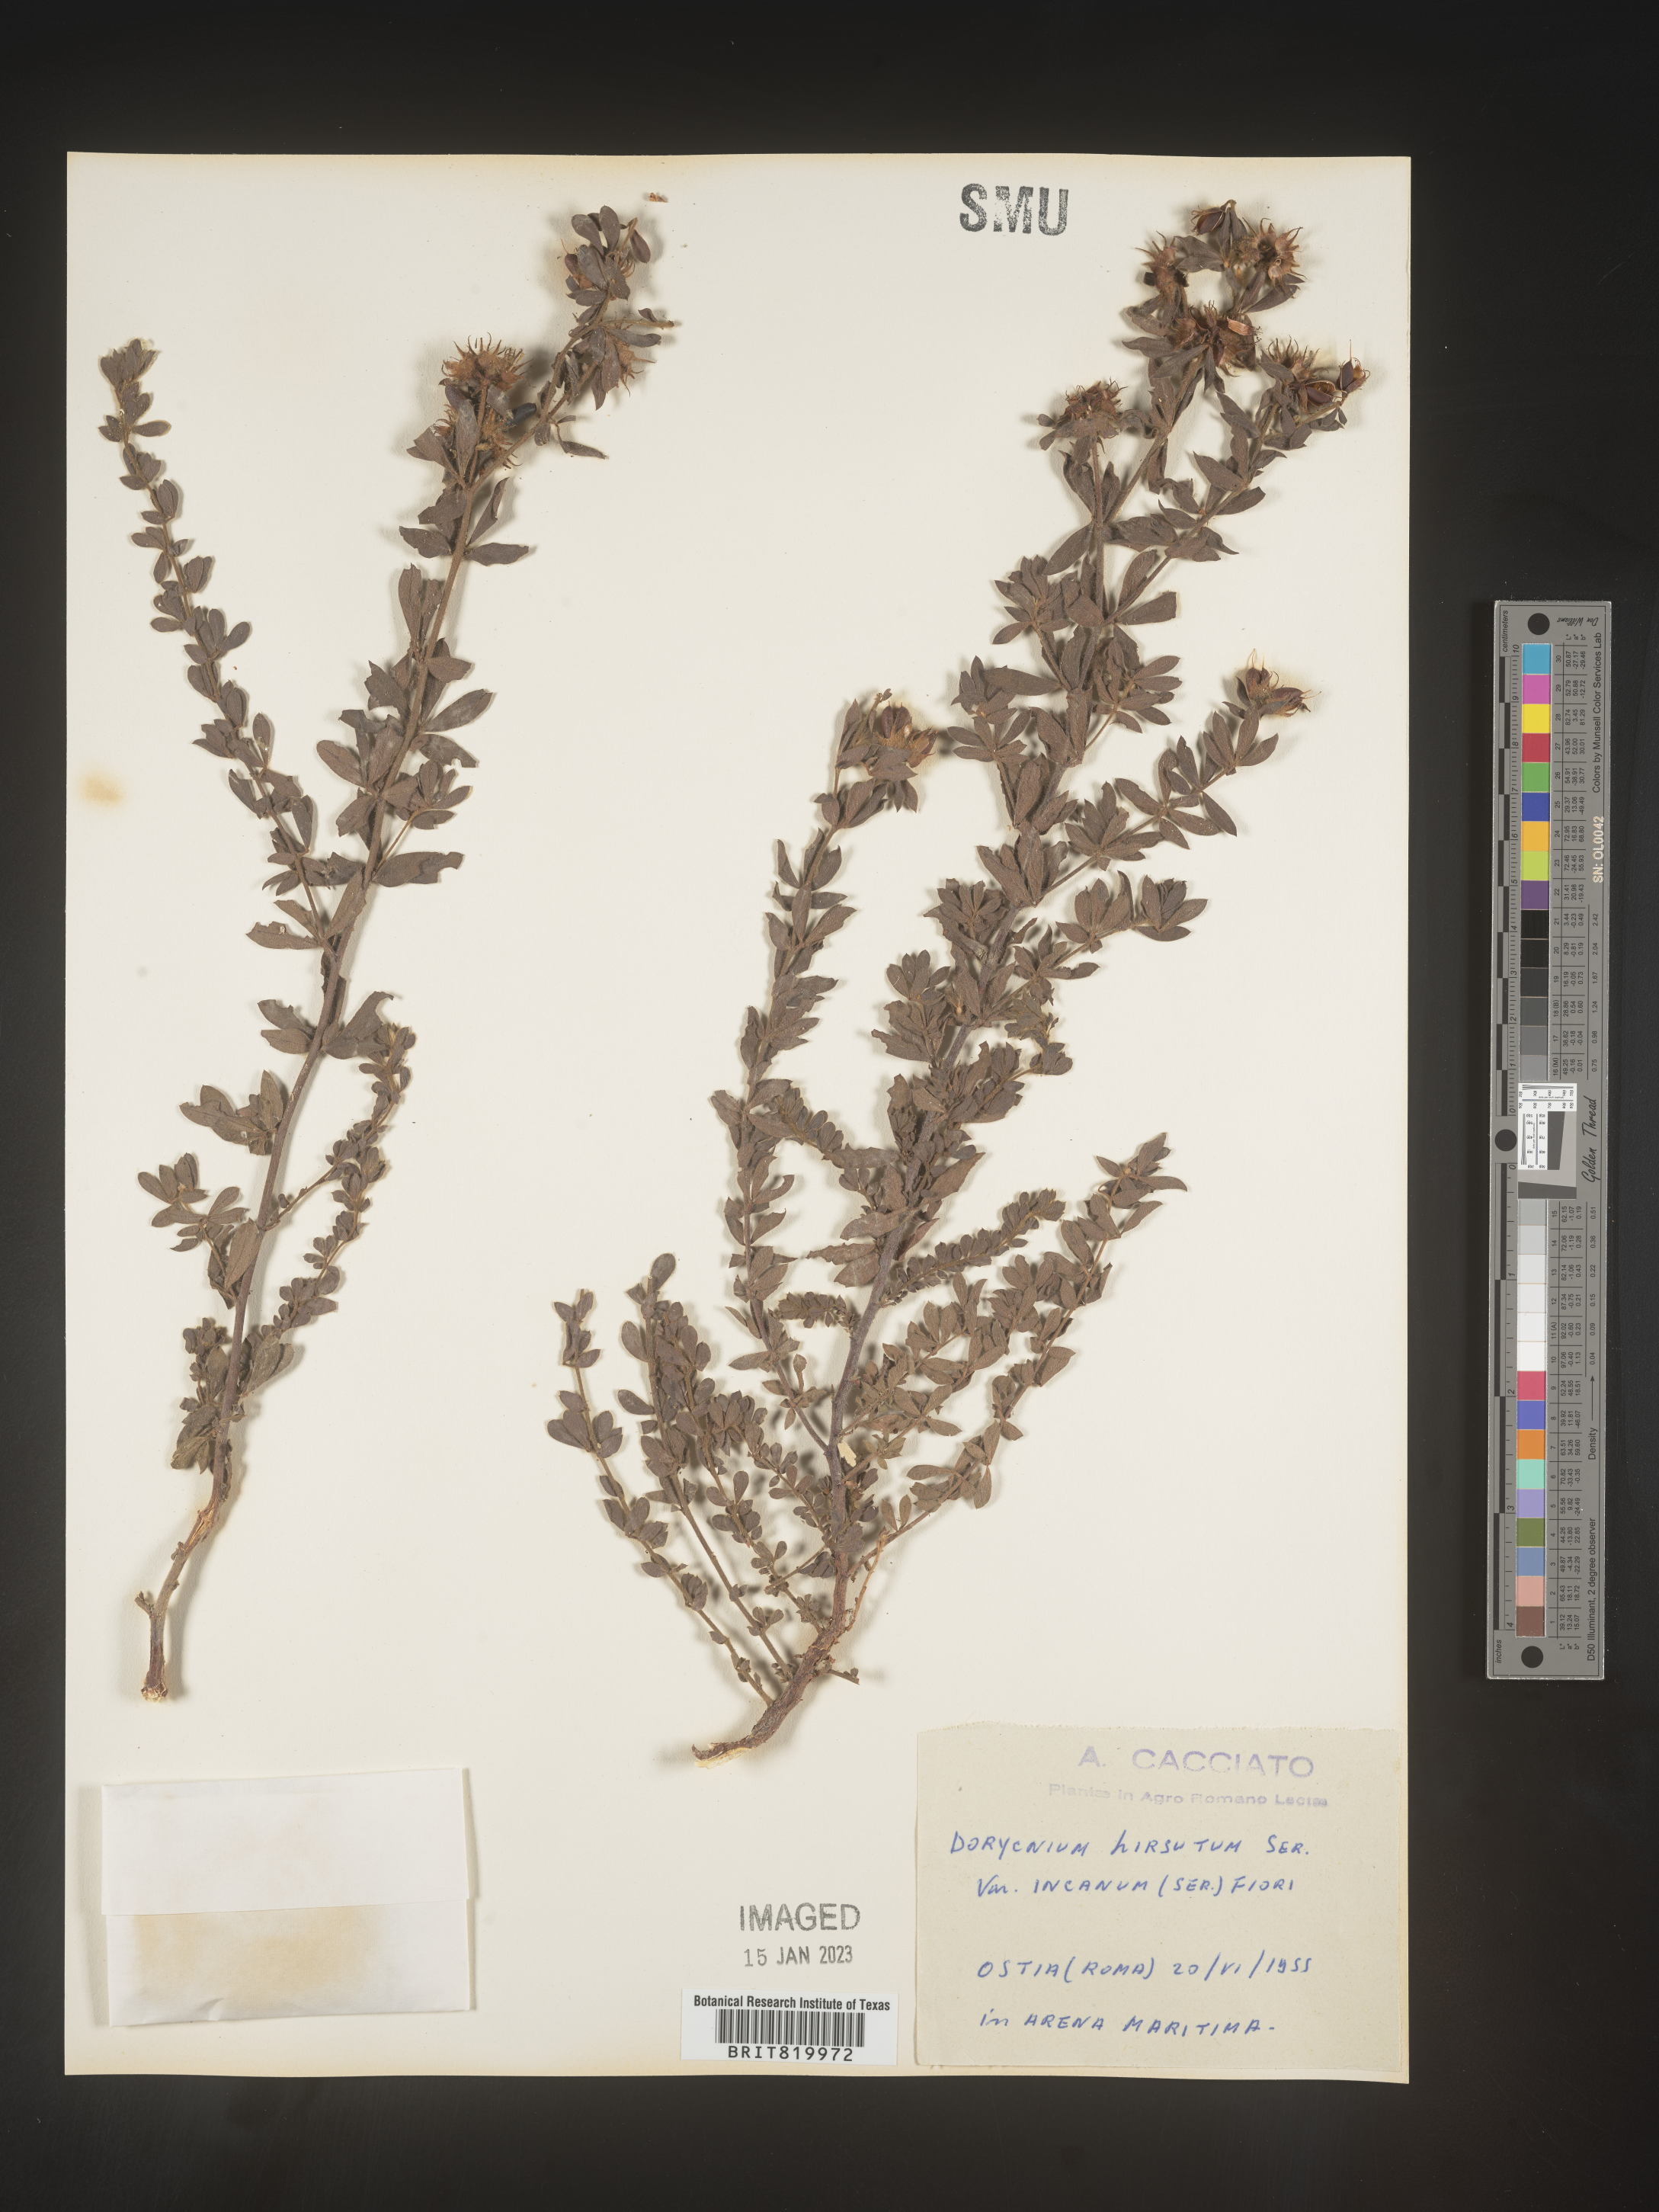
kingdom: Plantae
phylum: Tracheophyta
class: Magnoliopsida
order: Fabales
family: Fabaceae
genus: Lotus
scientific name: Lotus
